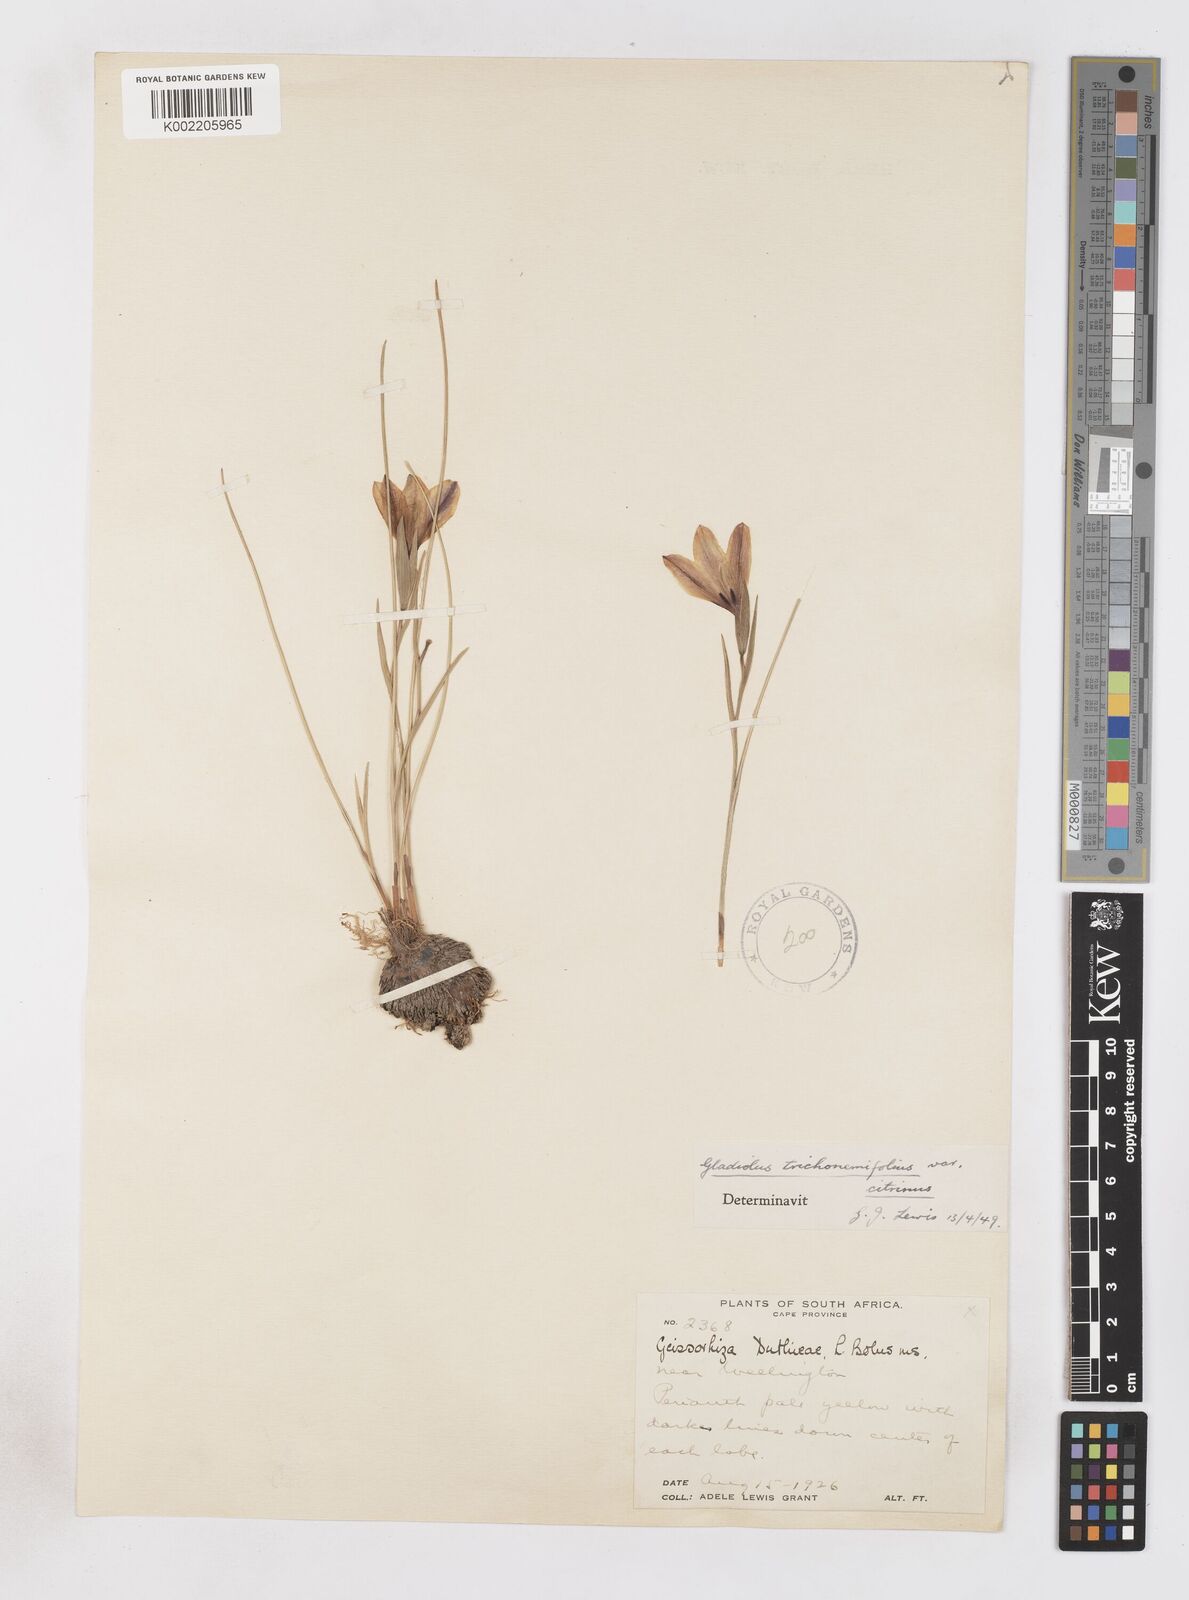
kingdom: Plantae
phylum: Tracheophyta
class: Liliopsida
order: Asparagales
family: Iridaceae
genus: Gladiolus
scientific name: Gladiolus trichonemifolius
